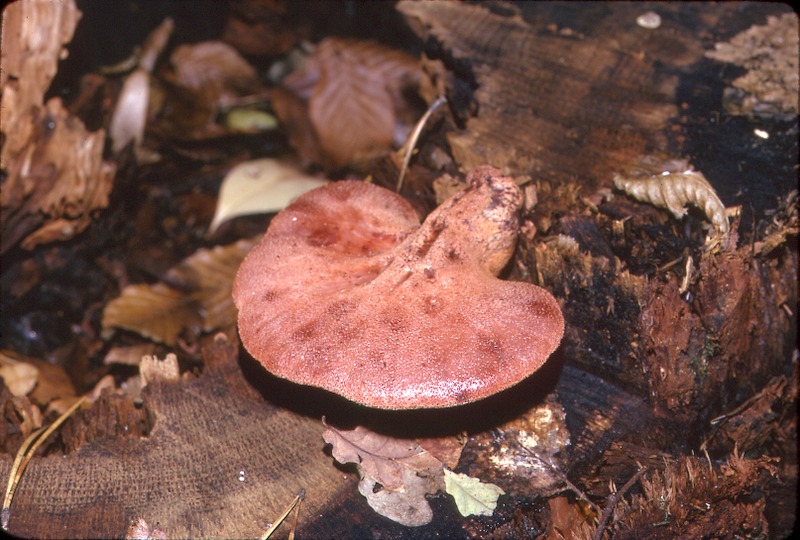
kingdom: Fungi
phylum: Basidiomycota
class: Agaricomycetes
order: Agaricales
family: Fistulinaceae
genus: Fistulina
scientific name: Fistulina hepatica
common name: Beef-steak fungus
